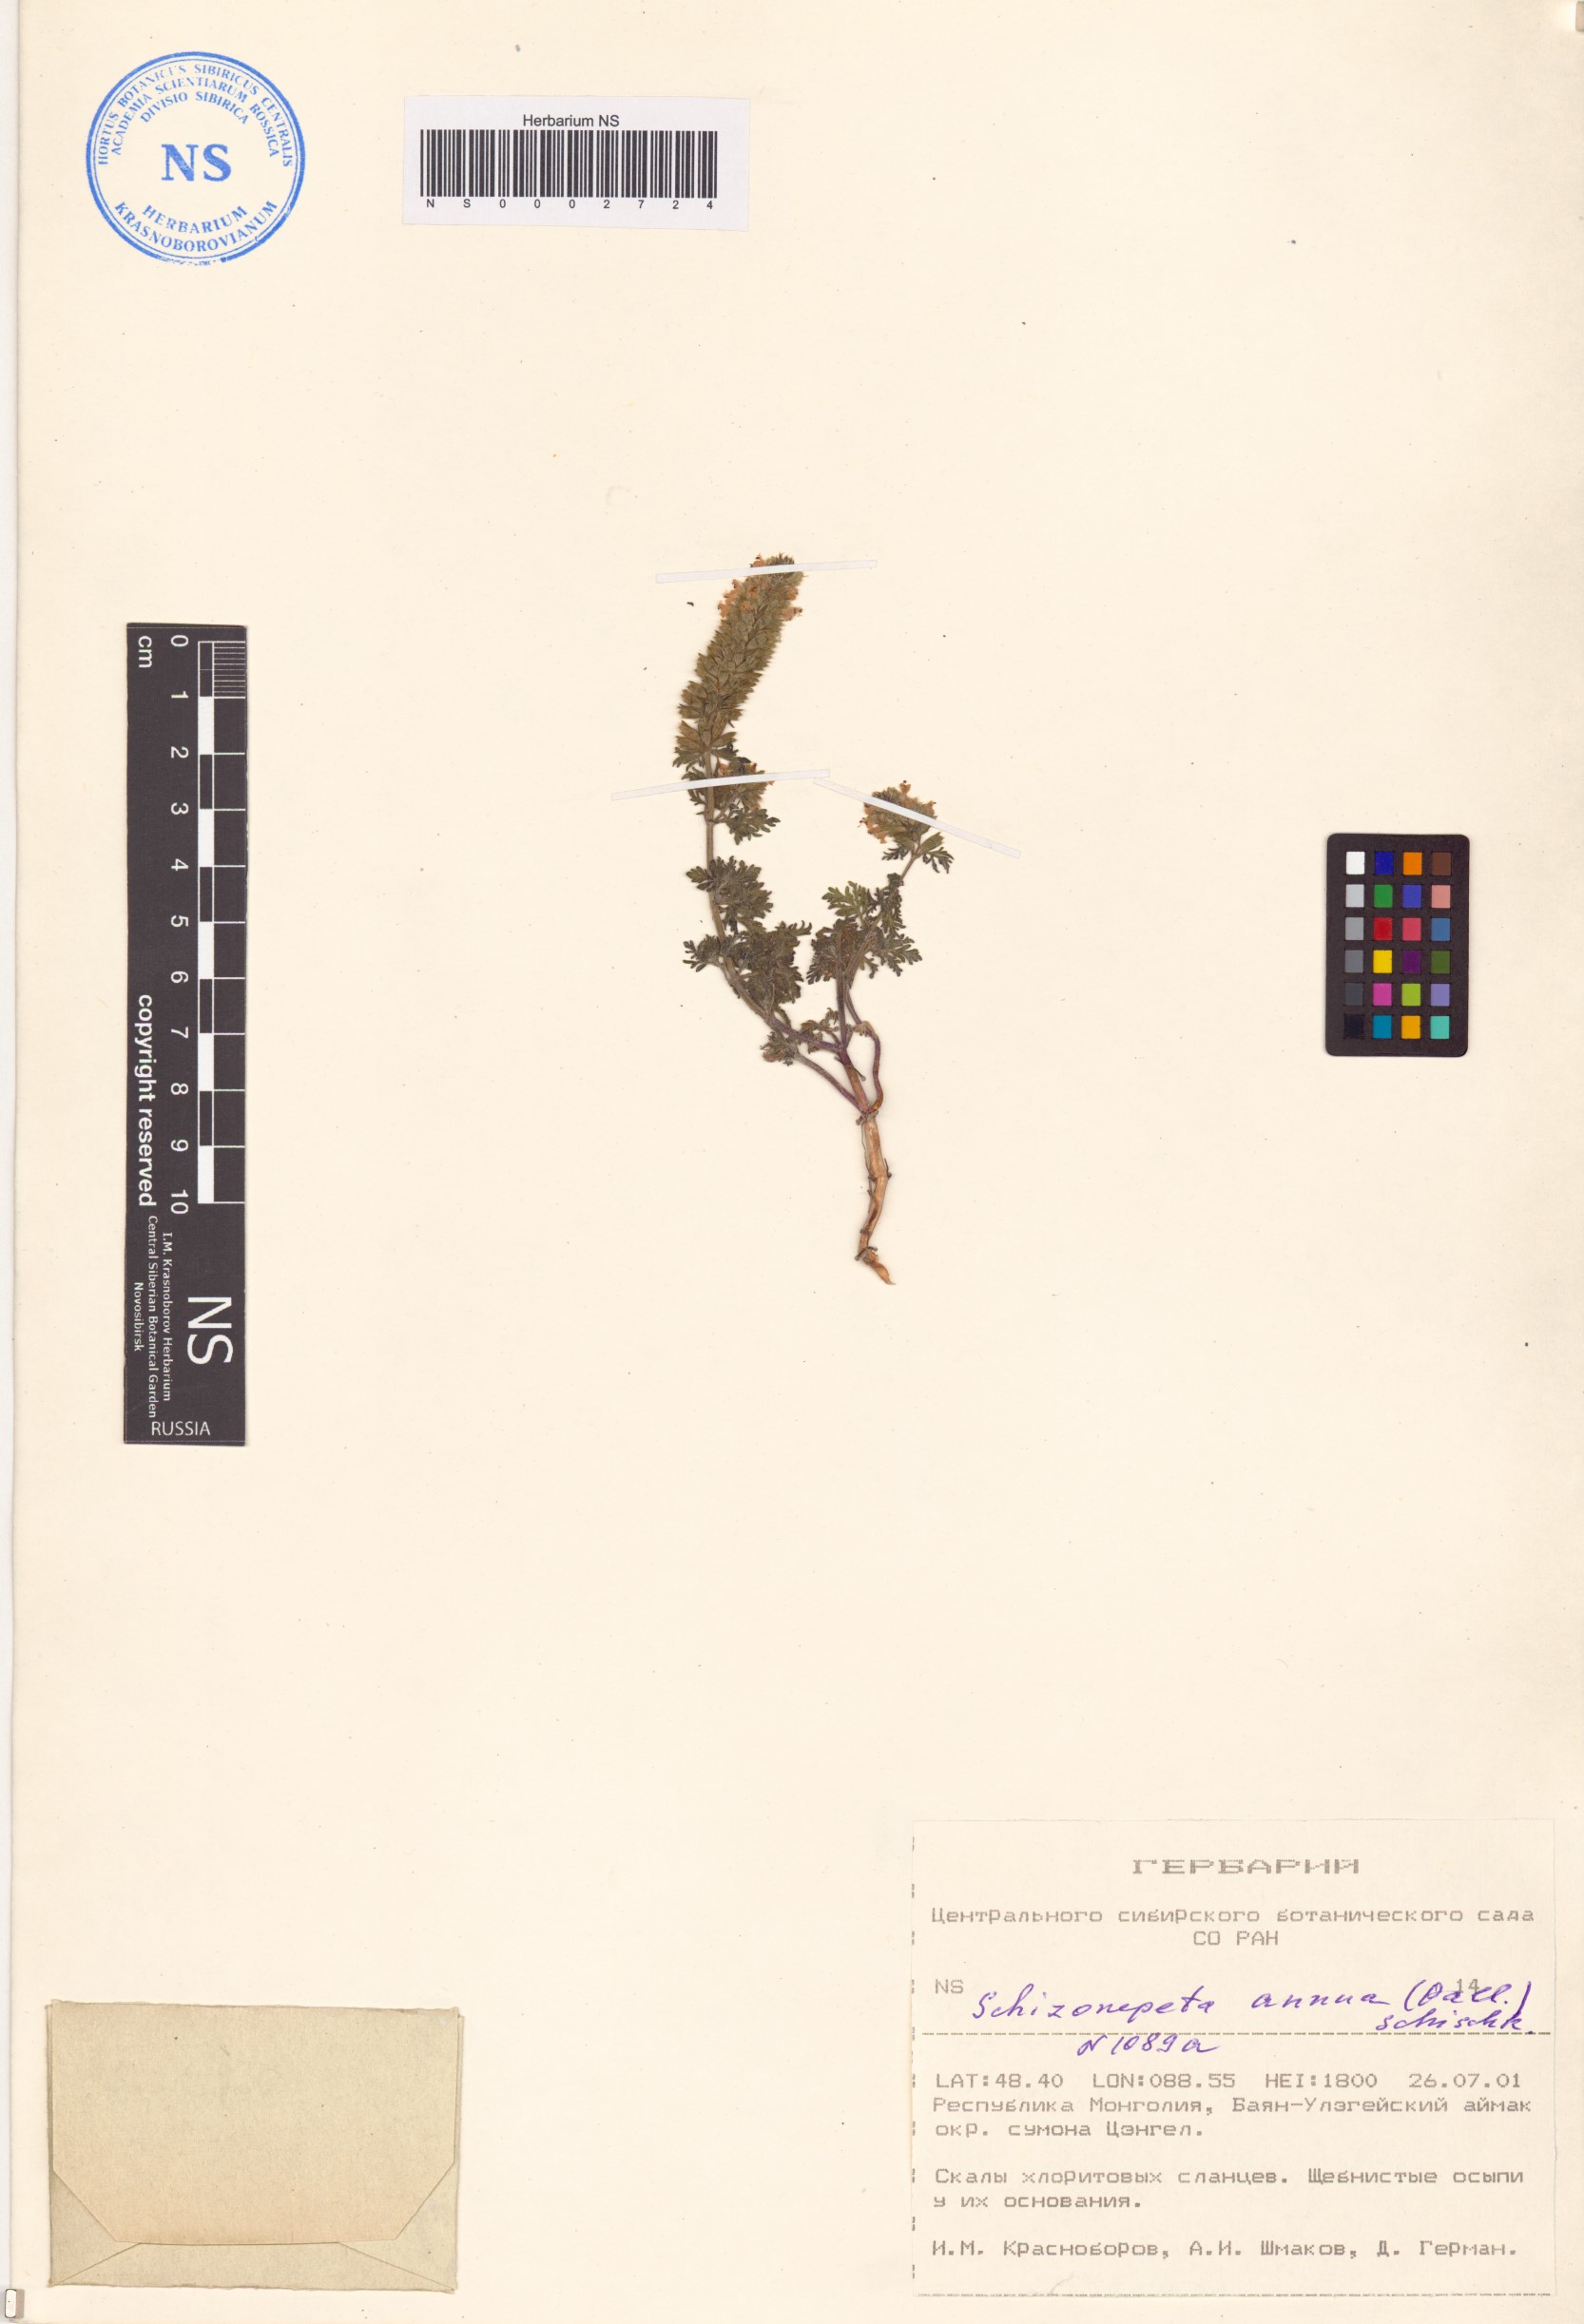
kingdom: Plantae
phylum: Tracheophyta
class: Magnoliopsida
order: Lamiales
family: Lamiaceae
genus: Nepeta
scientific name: Nepeta annua
